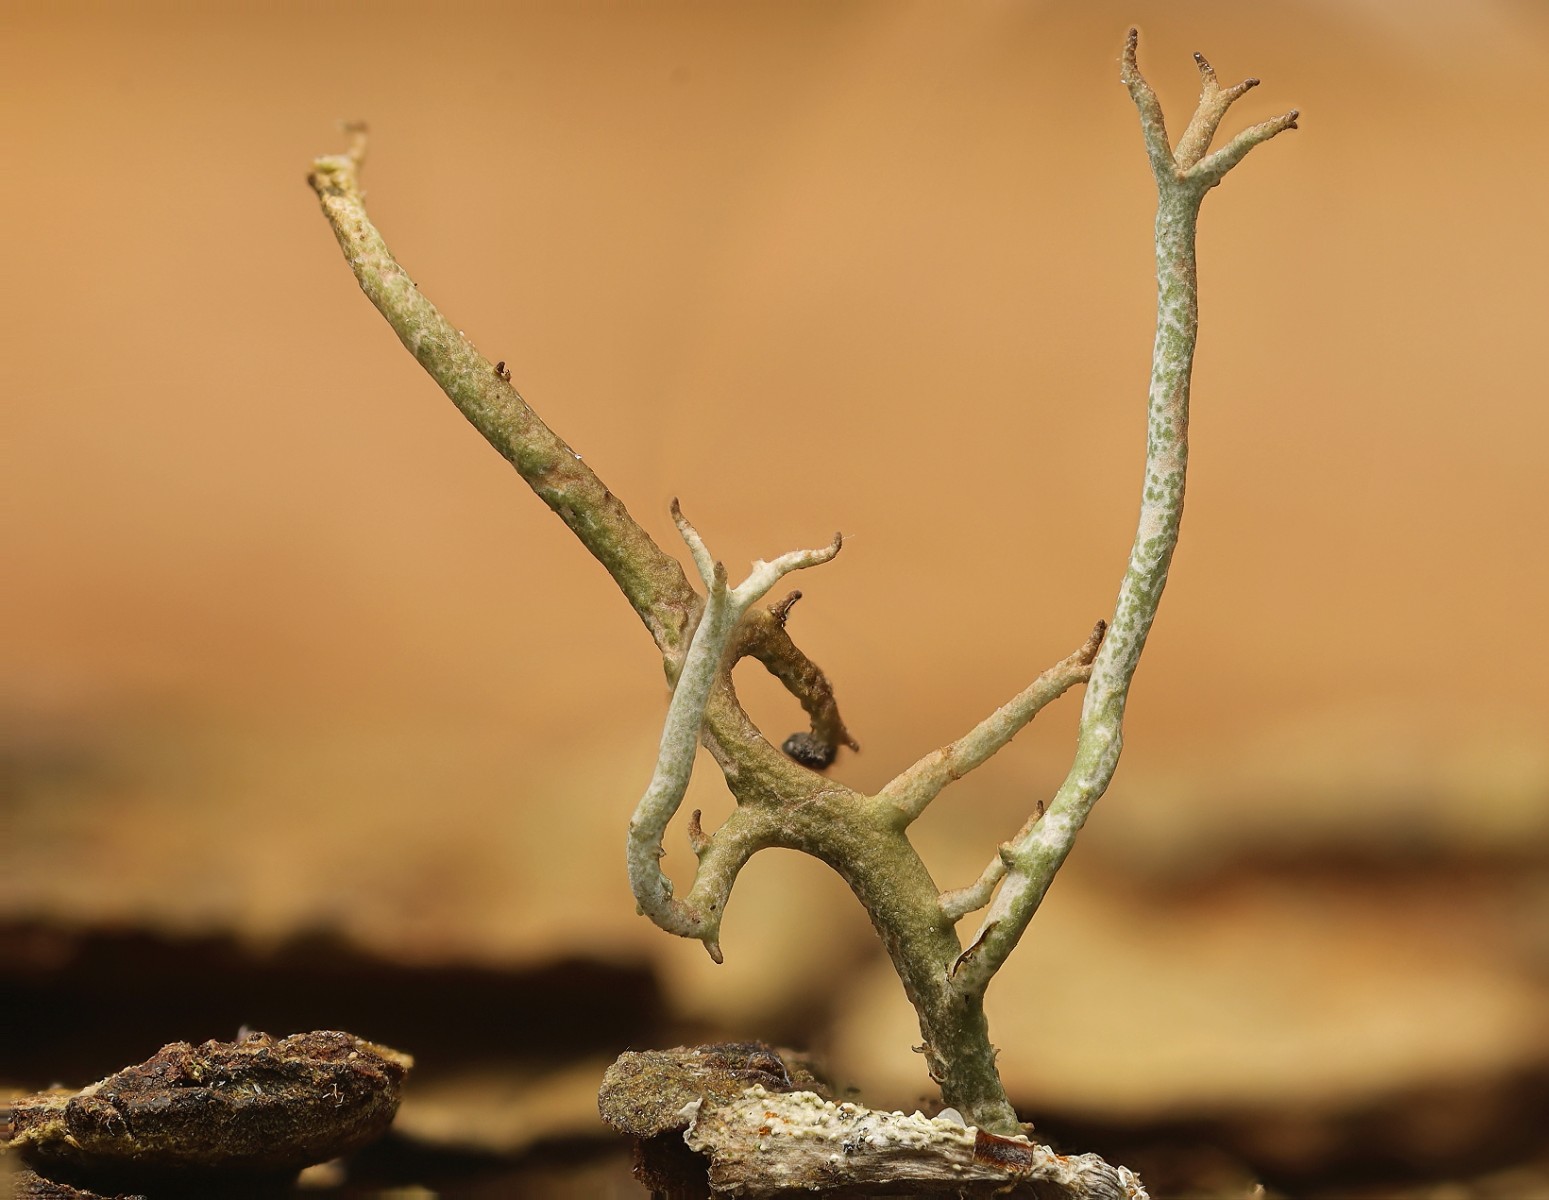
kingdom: Fungi
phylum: Ascomycota
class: Lecanoromycetes
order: Lecanorales
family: Cladoniaceae
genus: Cladonia
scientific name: Cladonia furcata
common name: kløftet bægerlav
